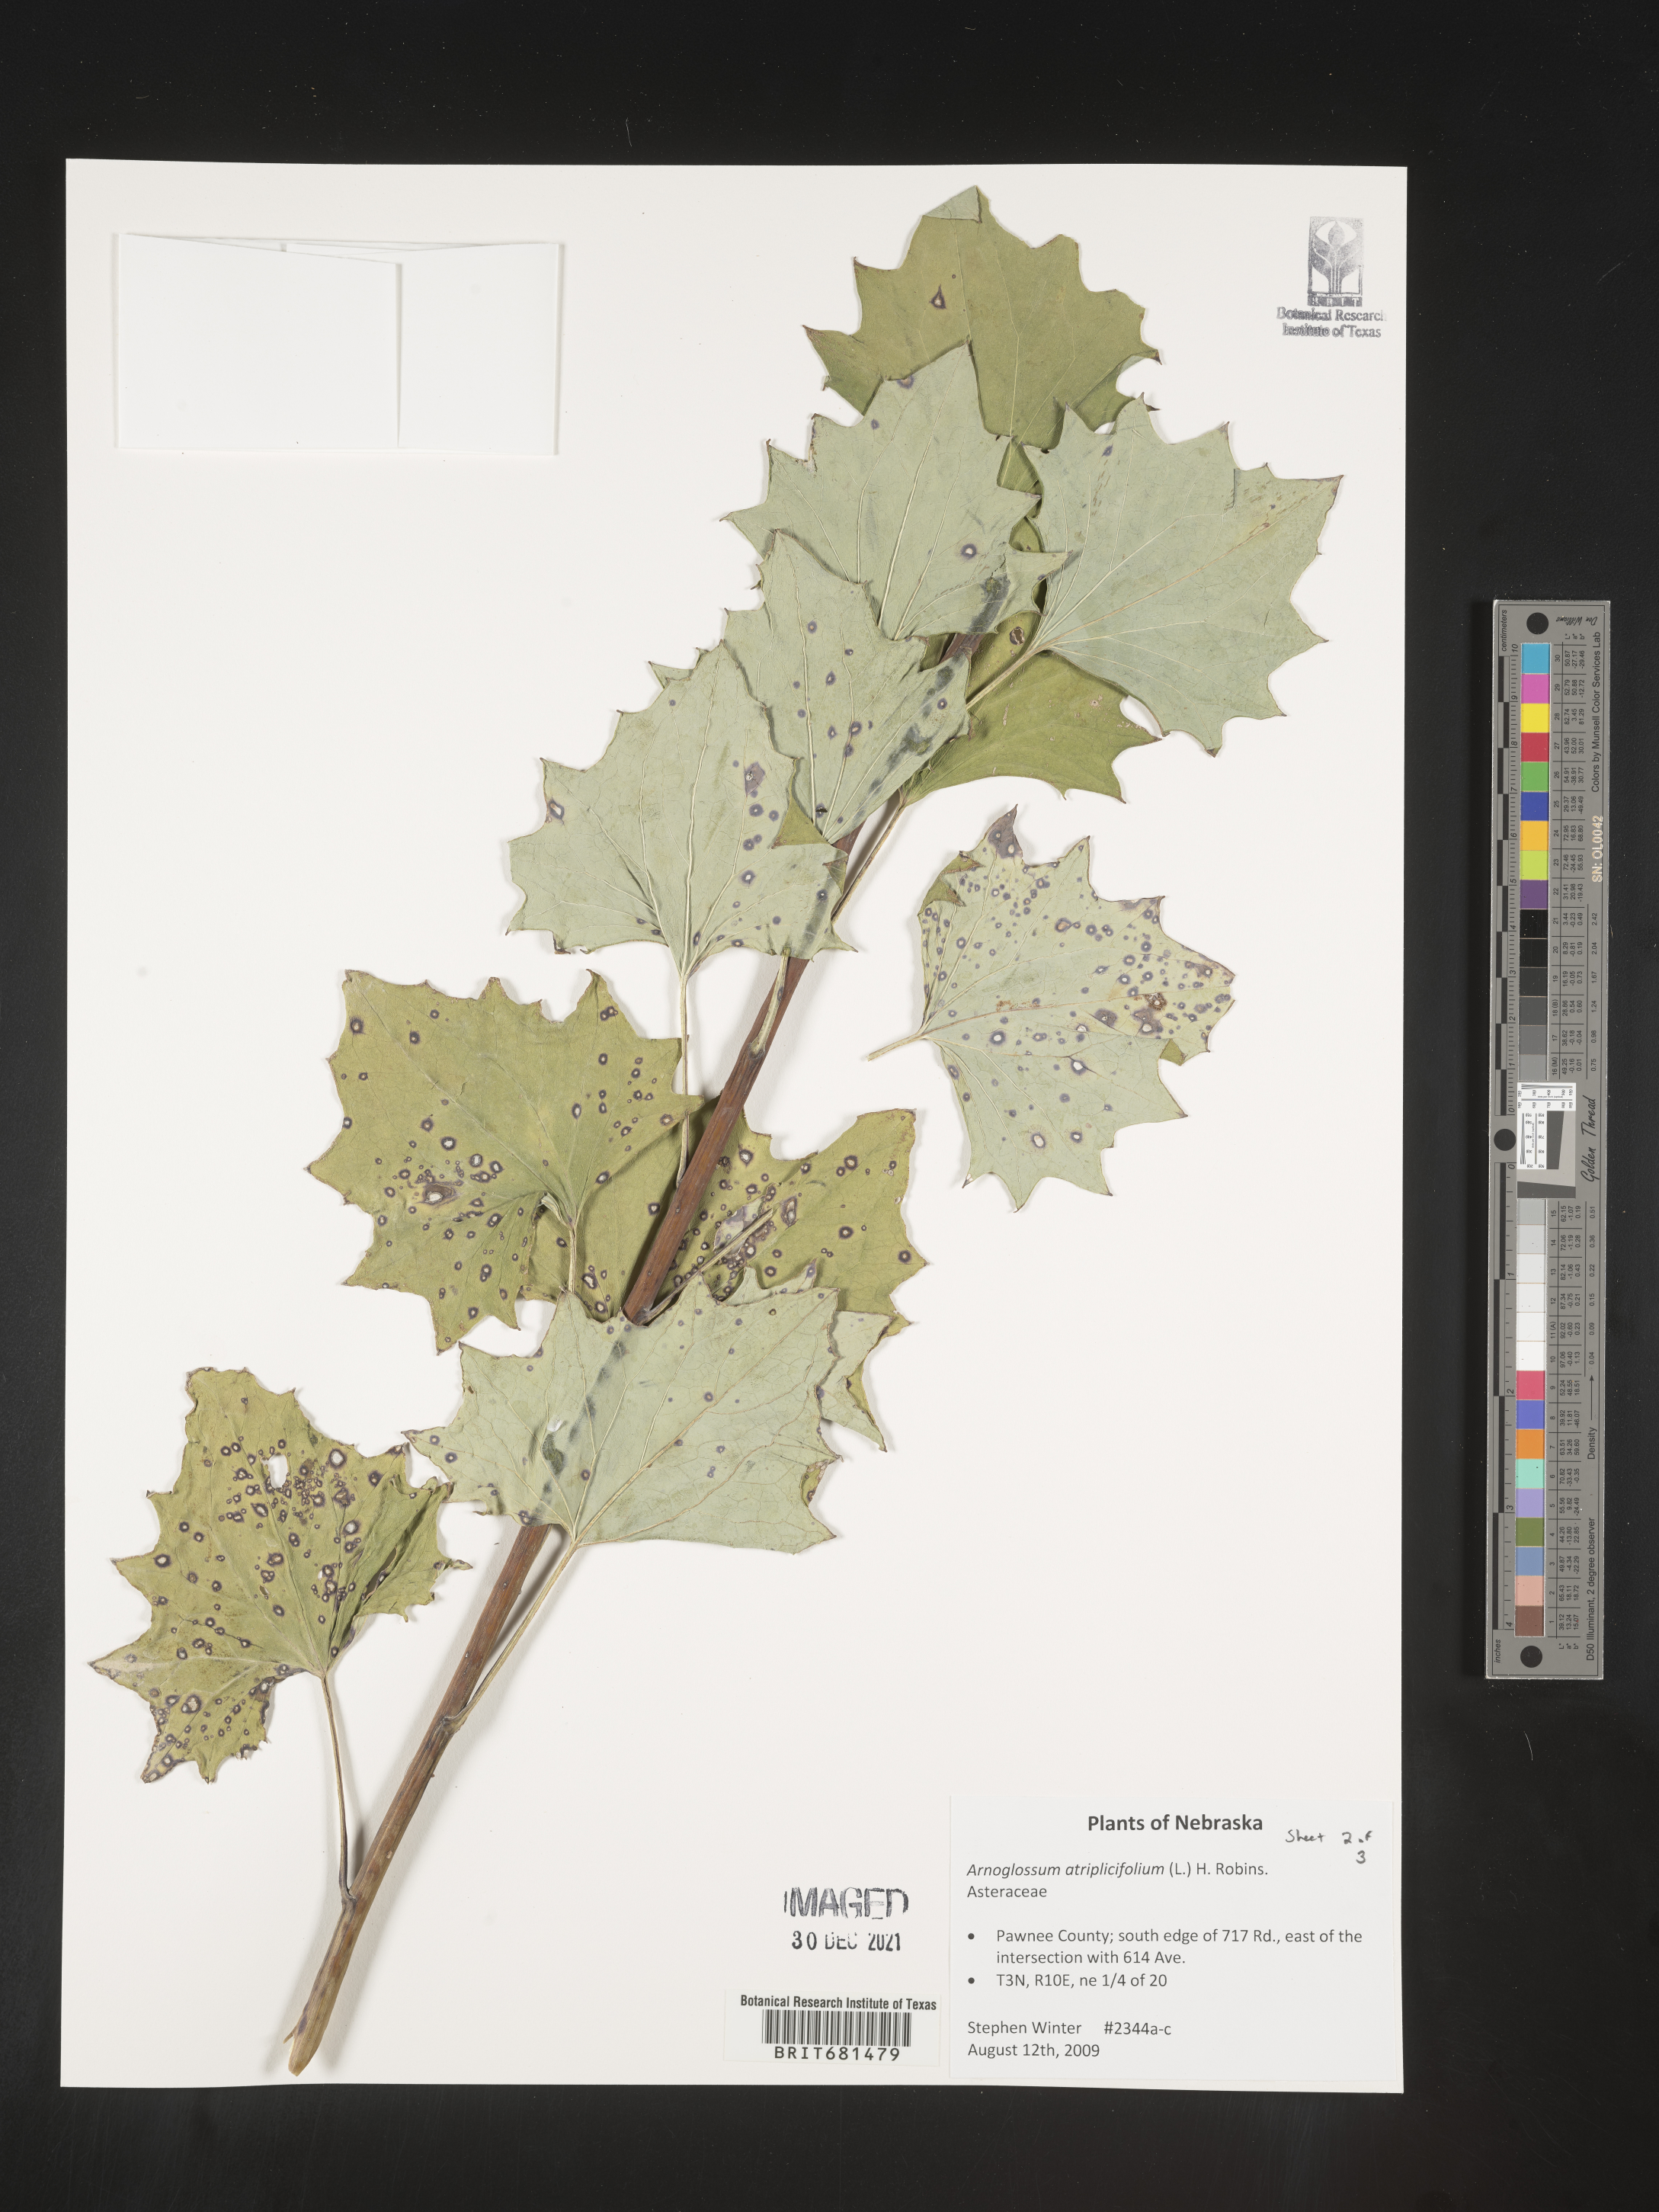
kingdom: Plantae
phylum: Tracheophyta
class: Magnoliopsida
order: Asterales
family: Asteraceae
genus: Arnoglossum
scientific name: Arnoglossum atriplicifolium
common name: Pale indian-plantain
